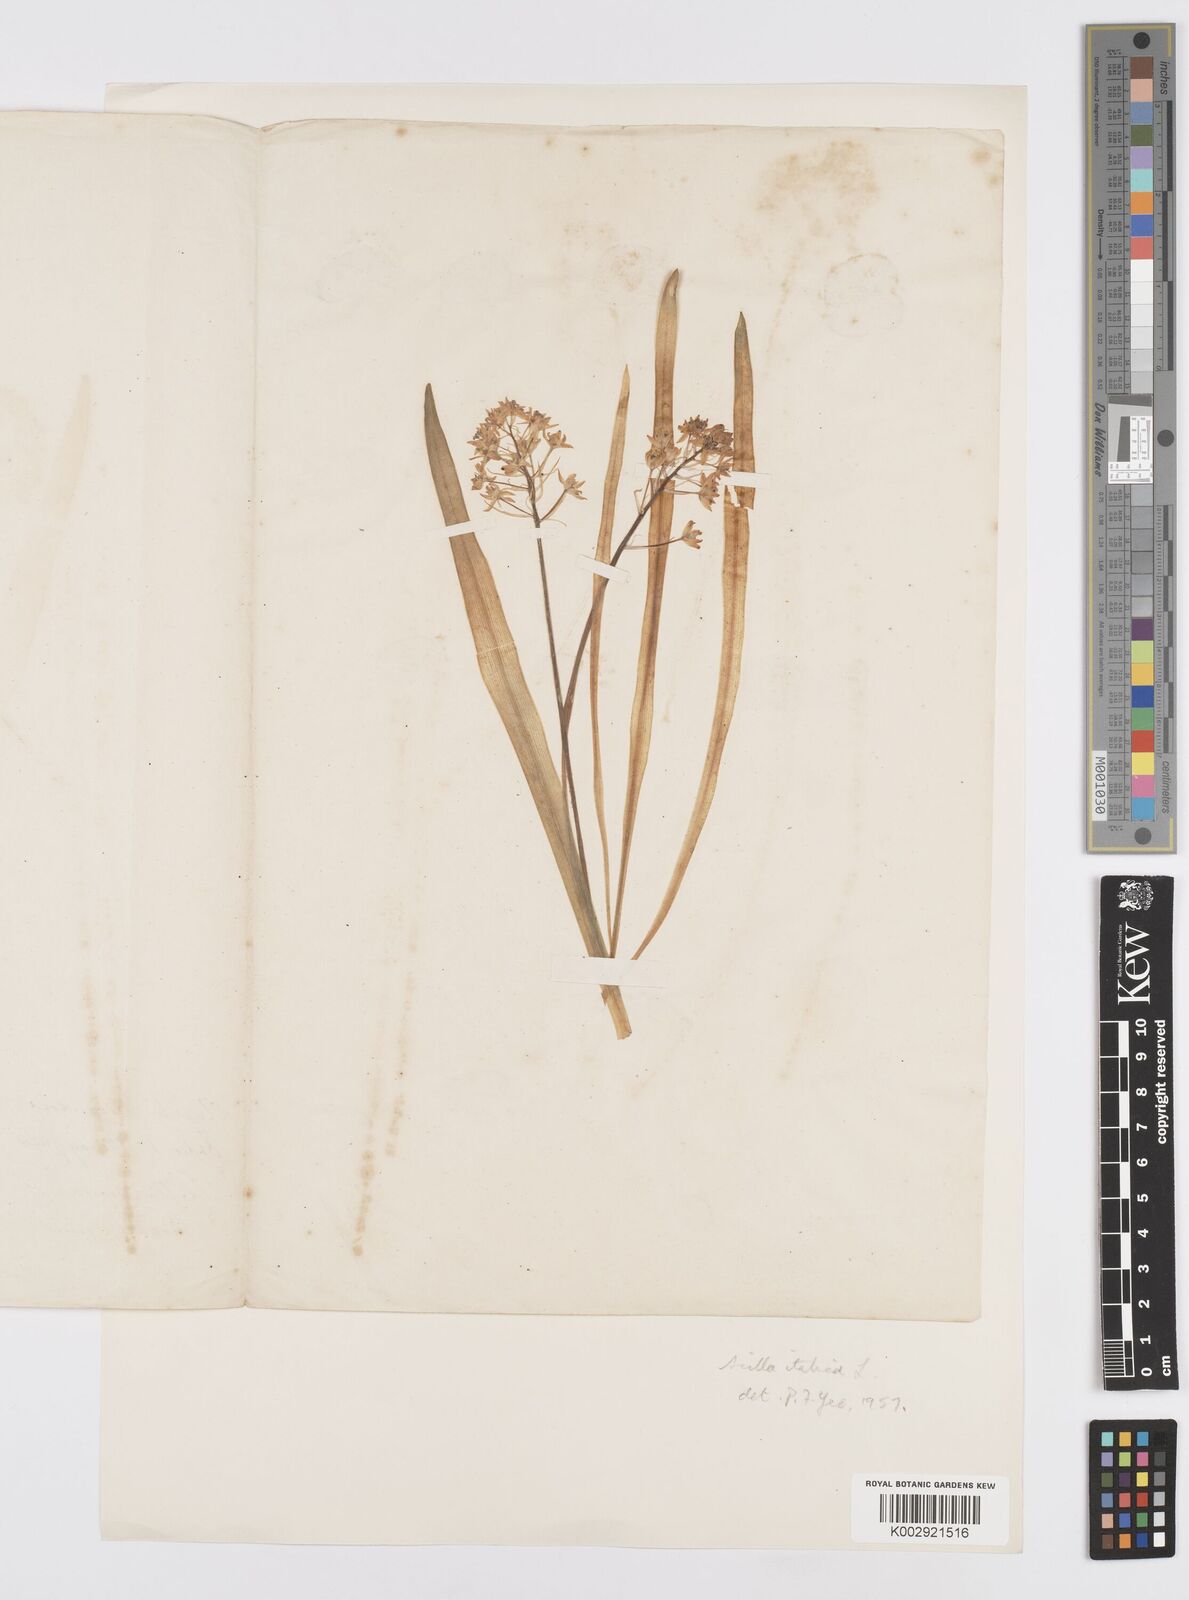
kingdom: Plantae
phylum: Tracheophyta
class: Liliopsida
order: Asparagales
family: Asparagaceae
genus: Hyacinthoides
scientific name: Hyacinthoides italica
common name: Italian bluebell
